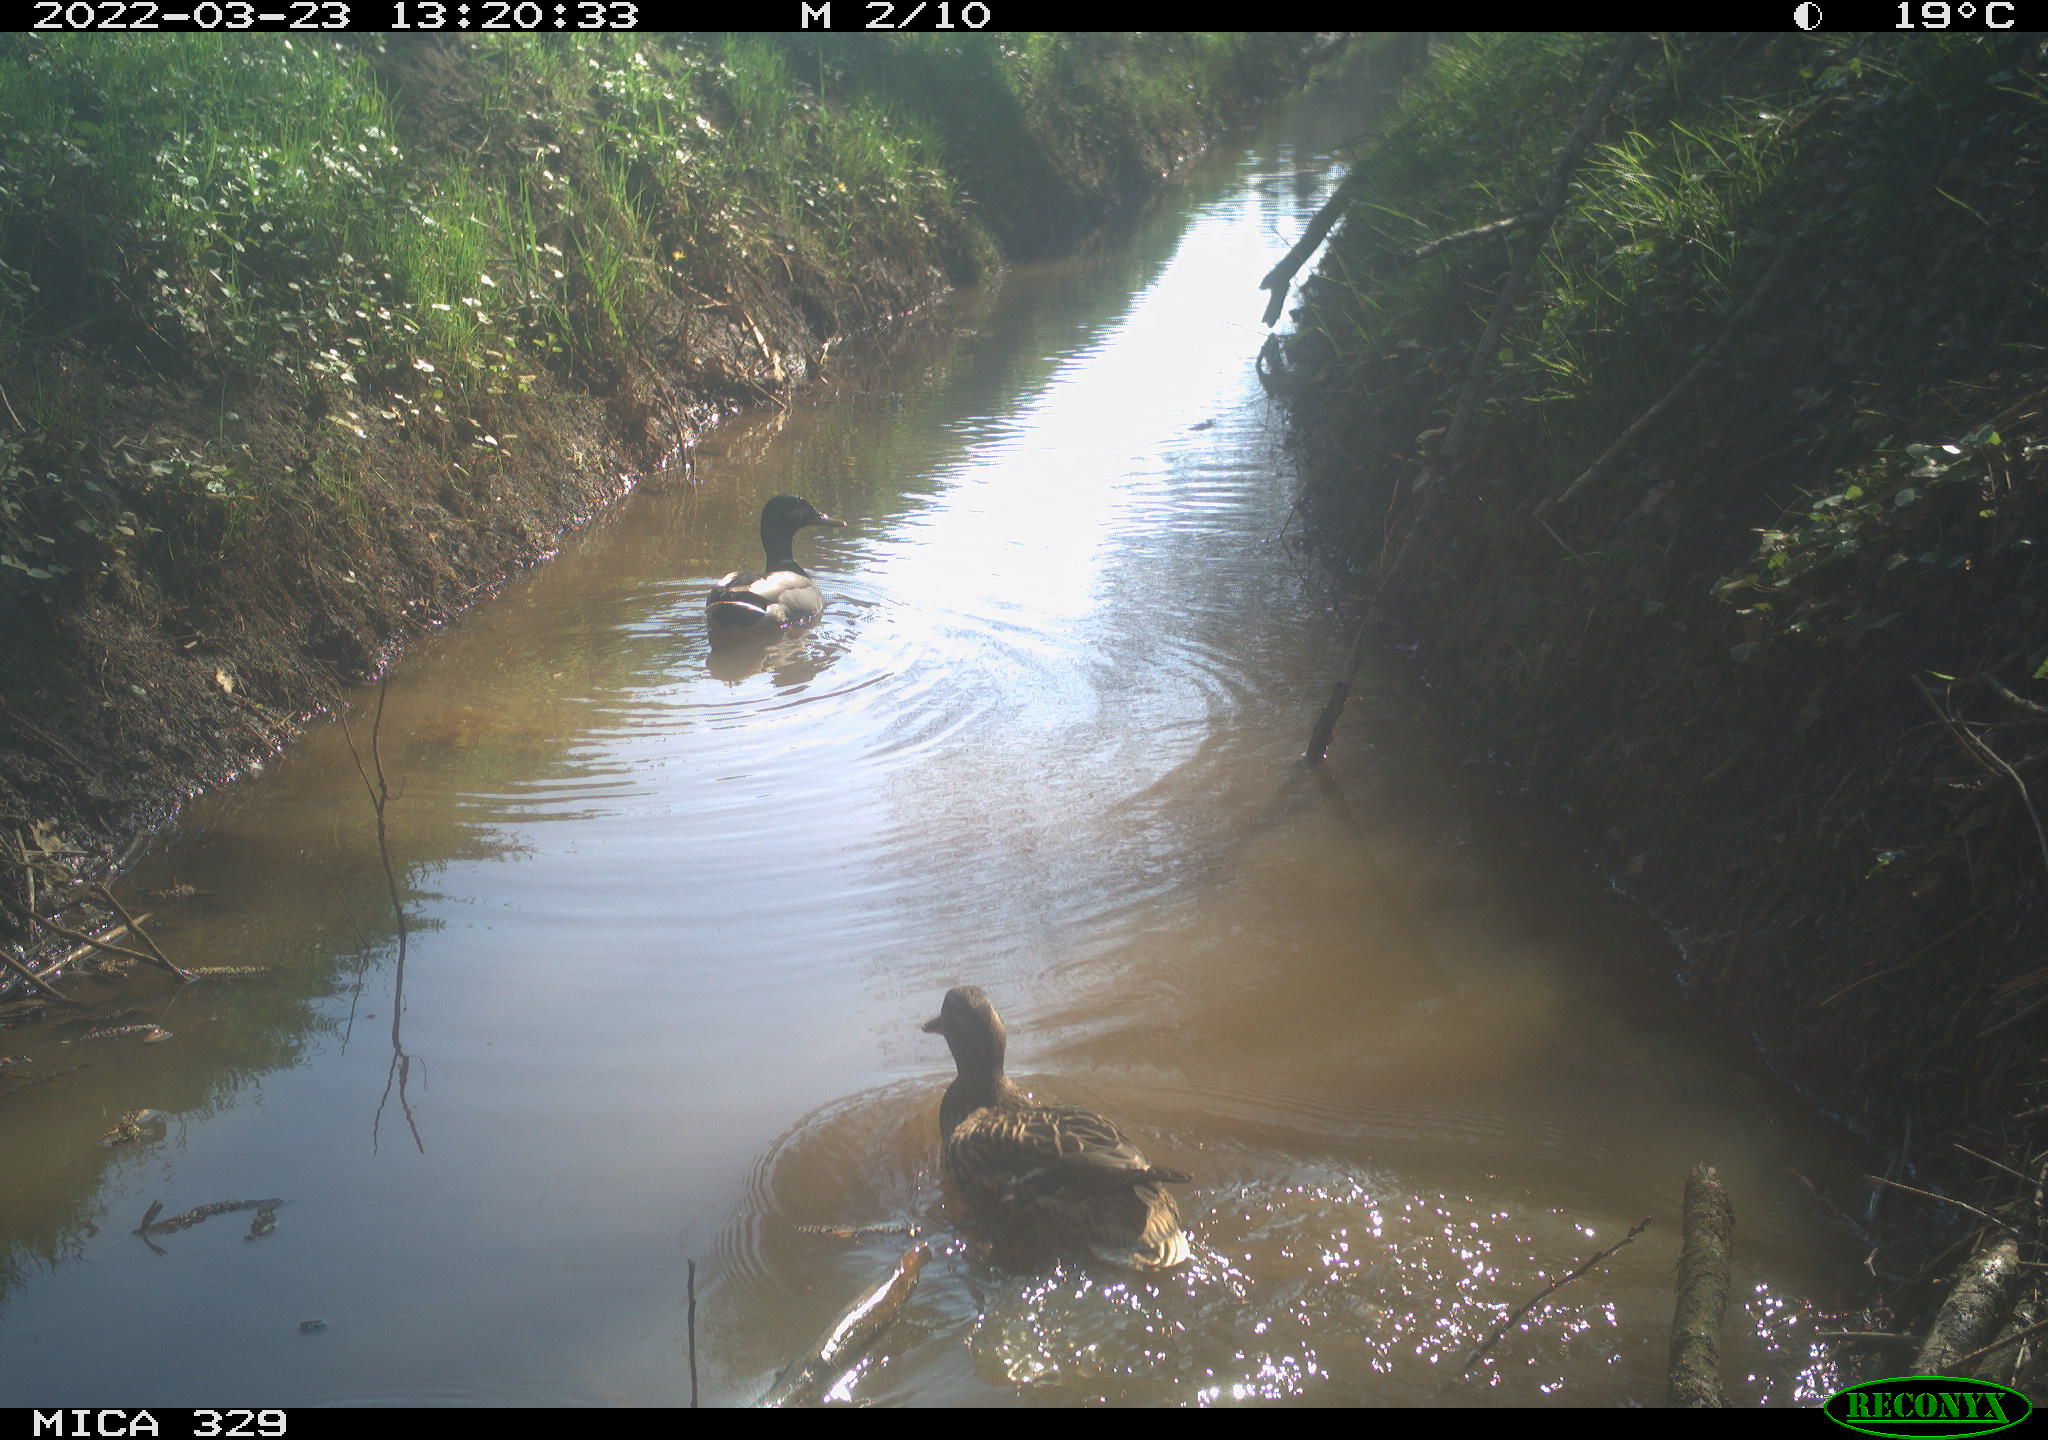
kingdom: Animalia
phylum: Chordata
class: Aves
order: Anseriformes
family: Anatidae
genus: Anas
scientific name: Anas platyrhynchos
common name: Mallard
